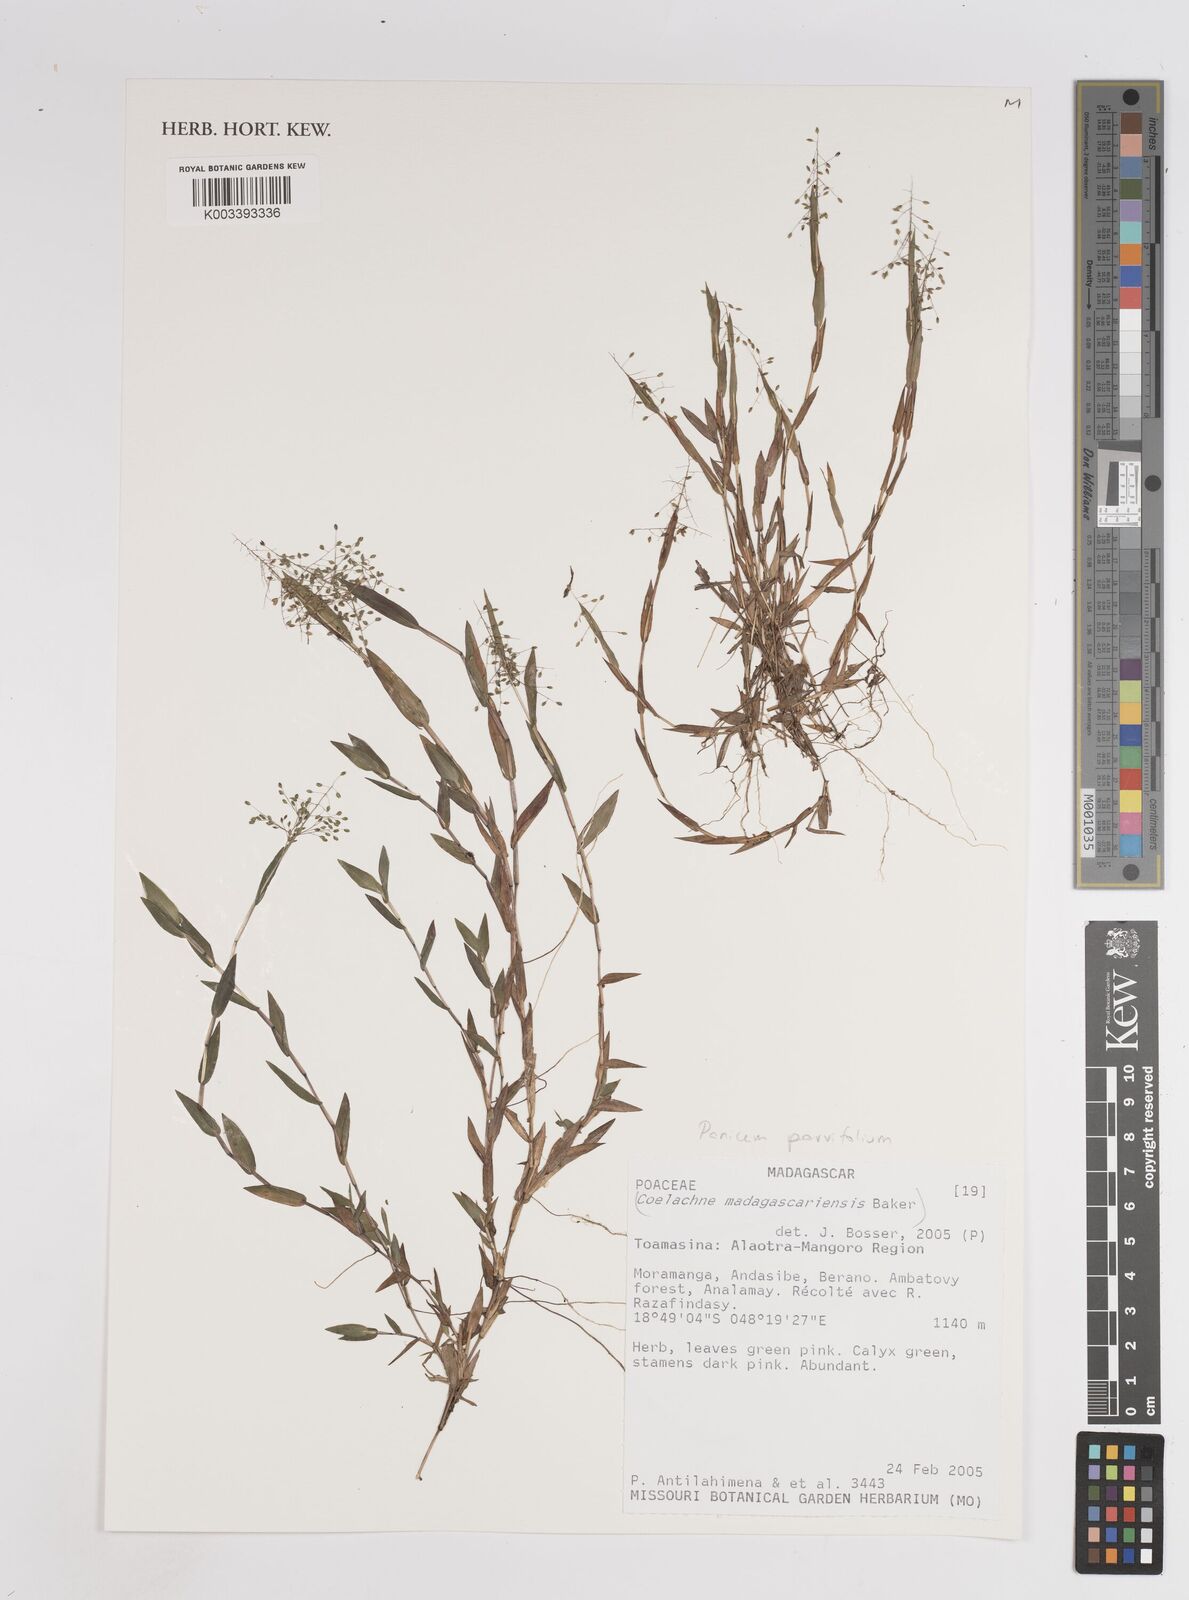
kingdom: Plantae
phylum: Tracheophyta
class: Liliopsida
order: Poales
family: Poaceae
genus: Trichanthecium
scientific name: Trichanthecium parvifolium
